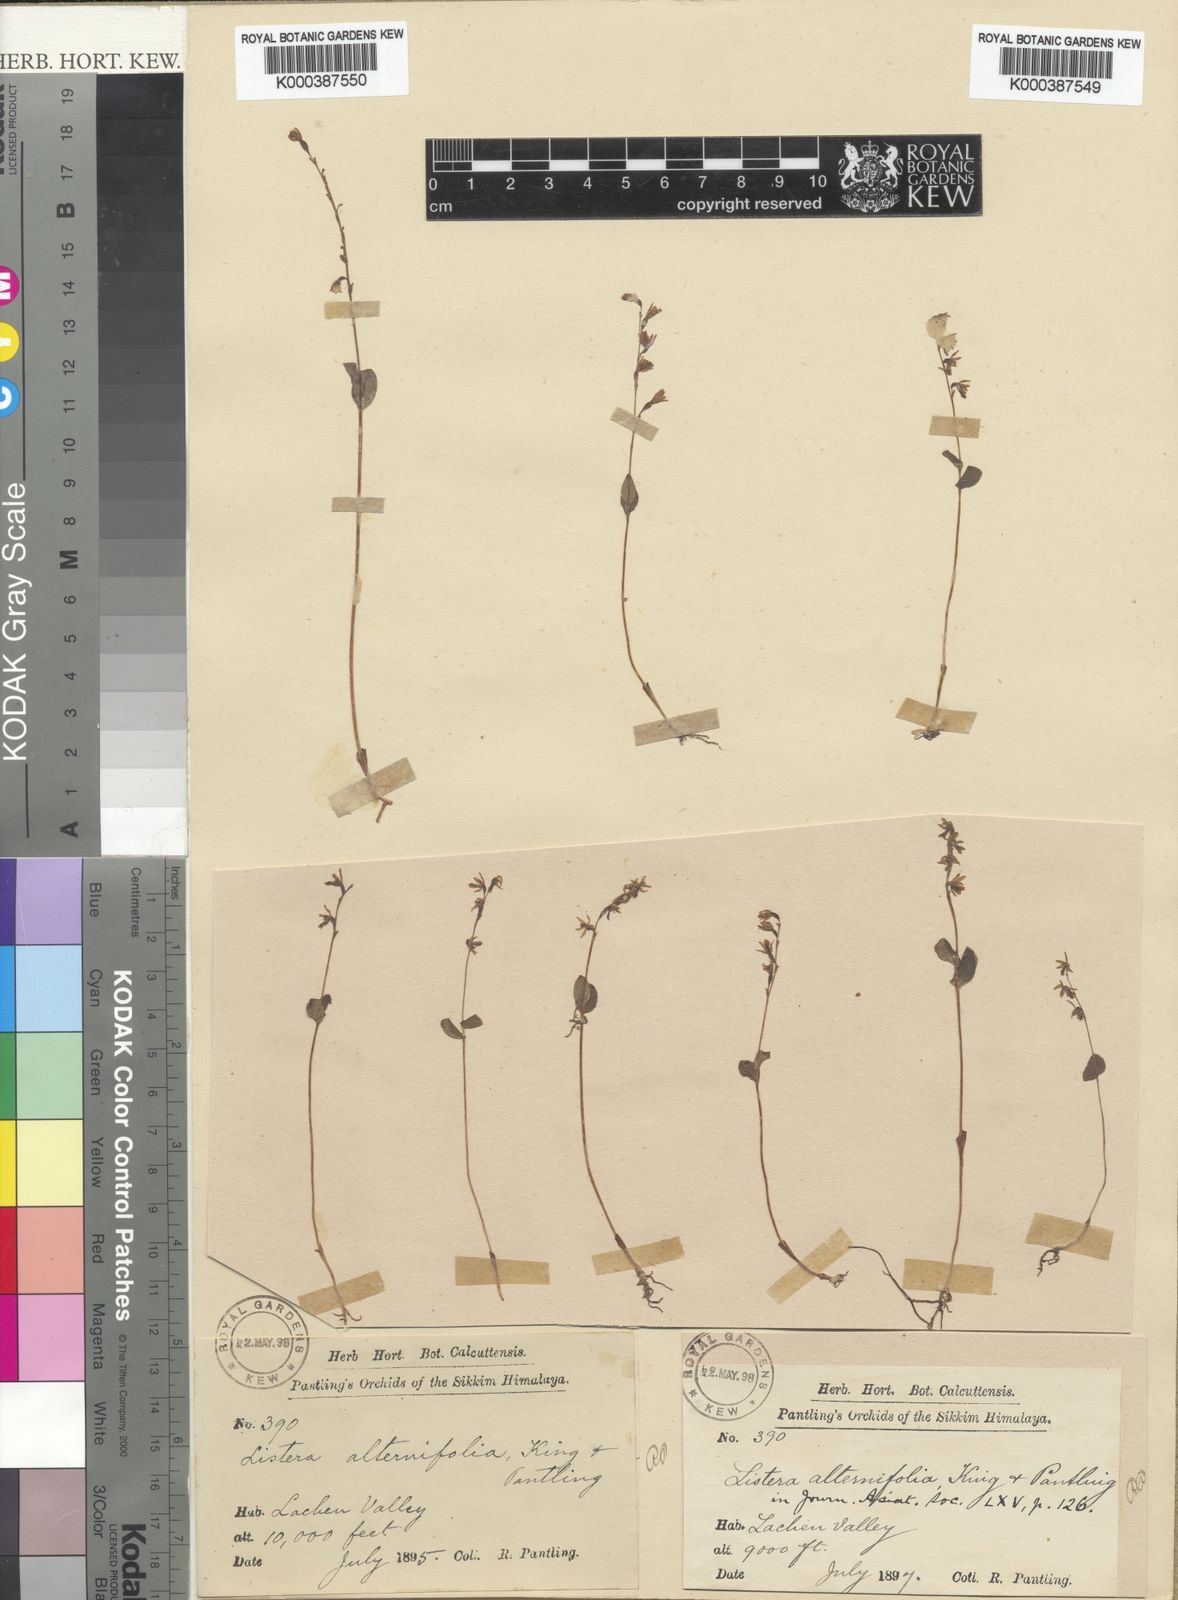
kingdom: Plantae
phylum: Tracheophyta
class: Liliopsida
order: Asparagales
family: Orchidaceae
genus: Neottia
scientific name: Neottia alternifolia
